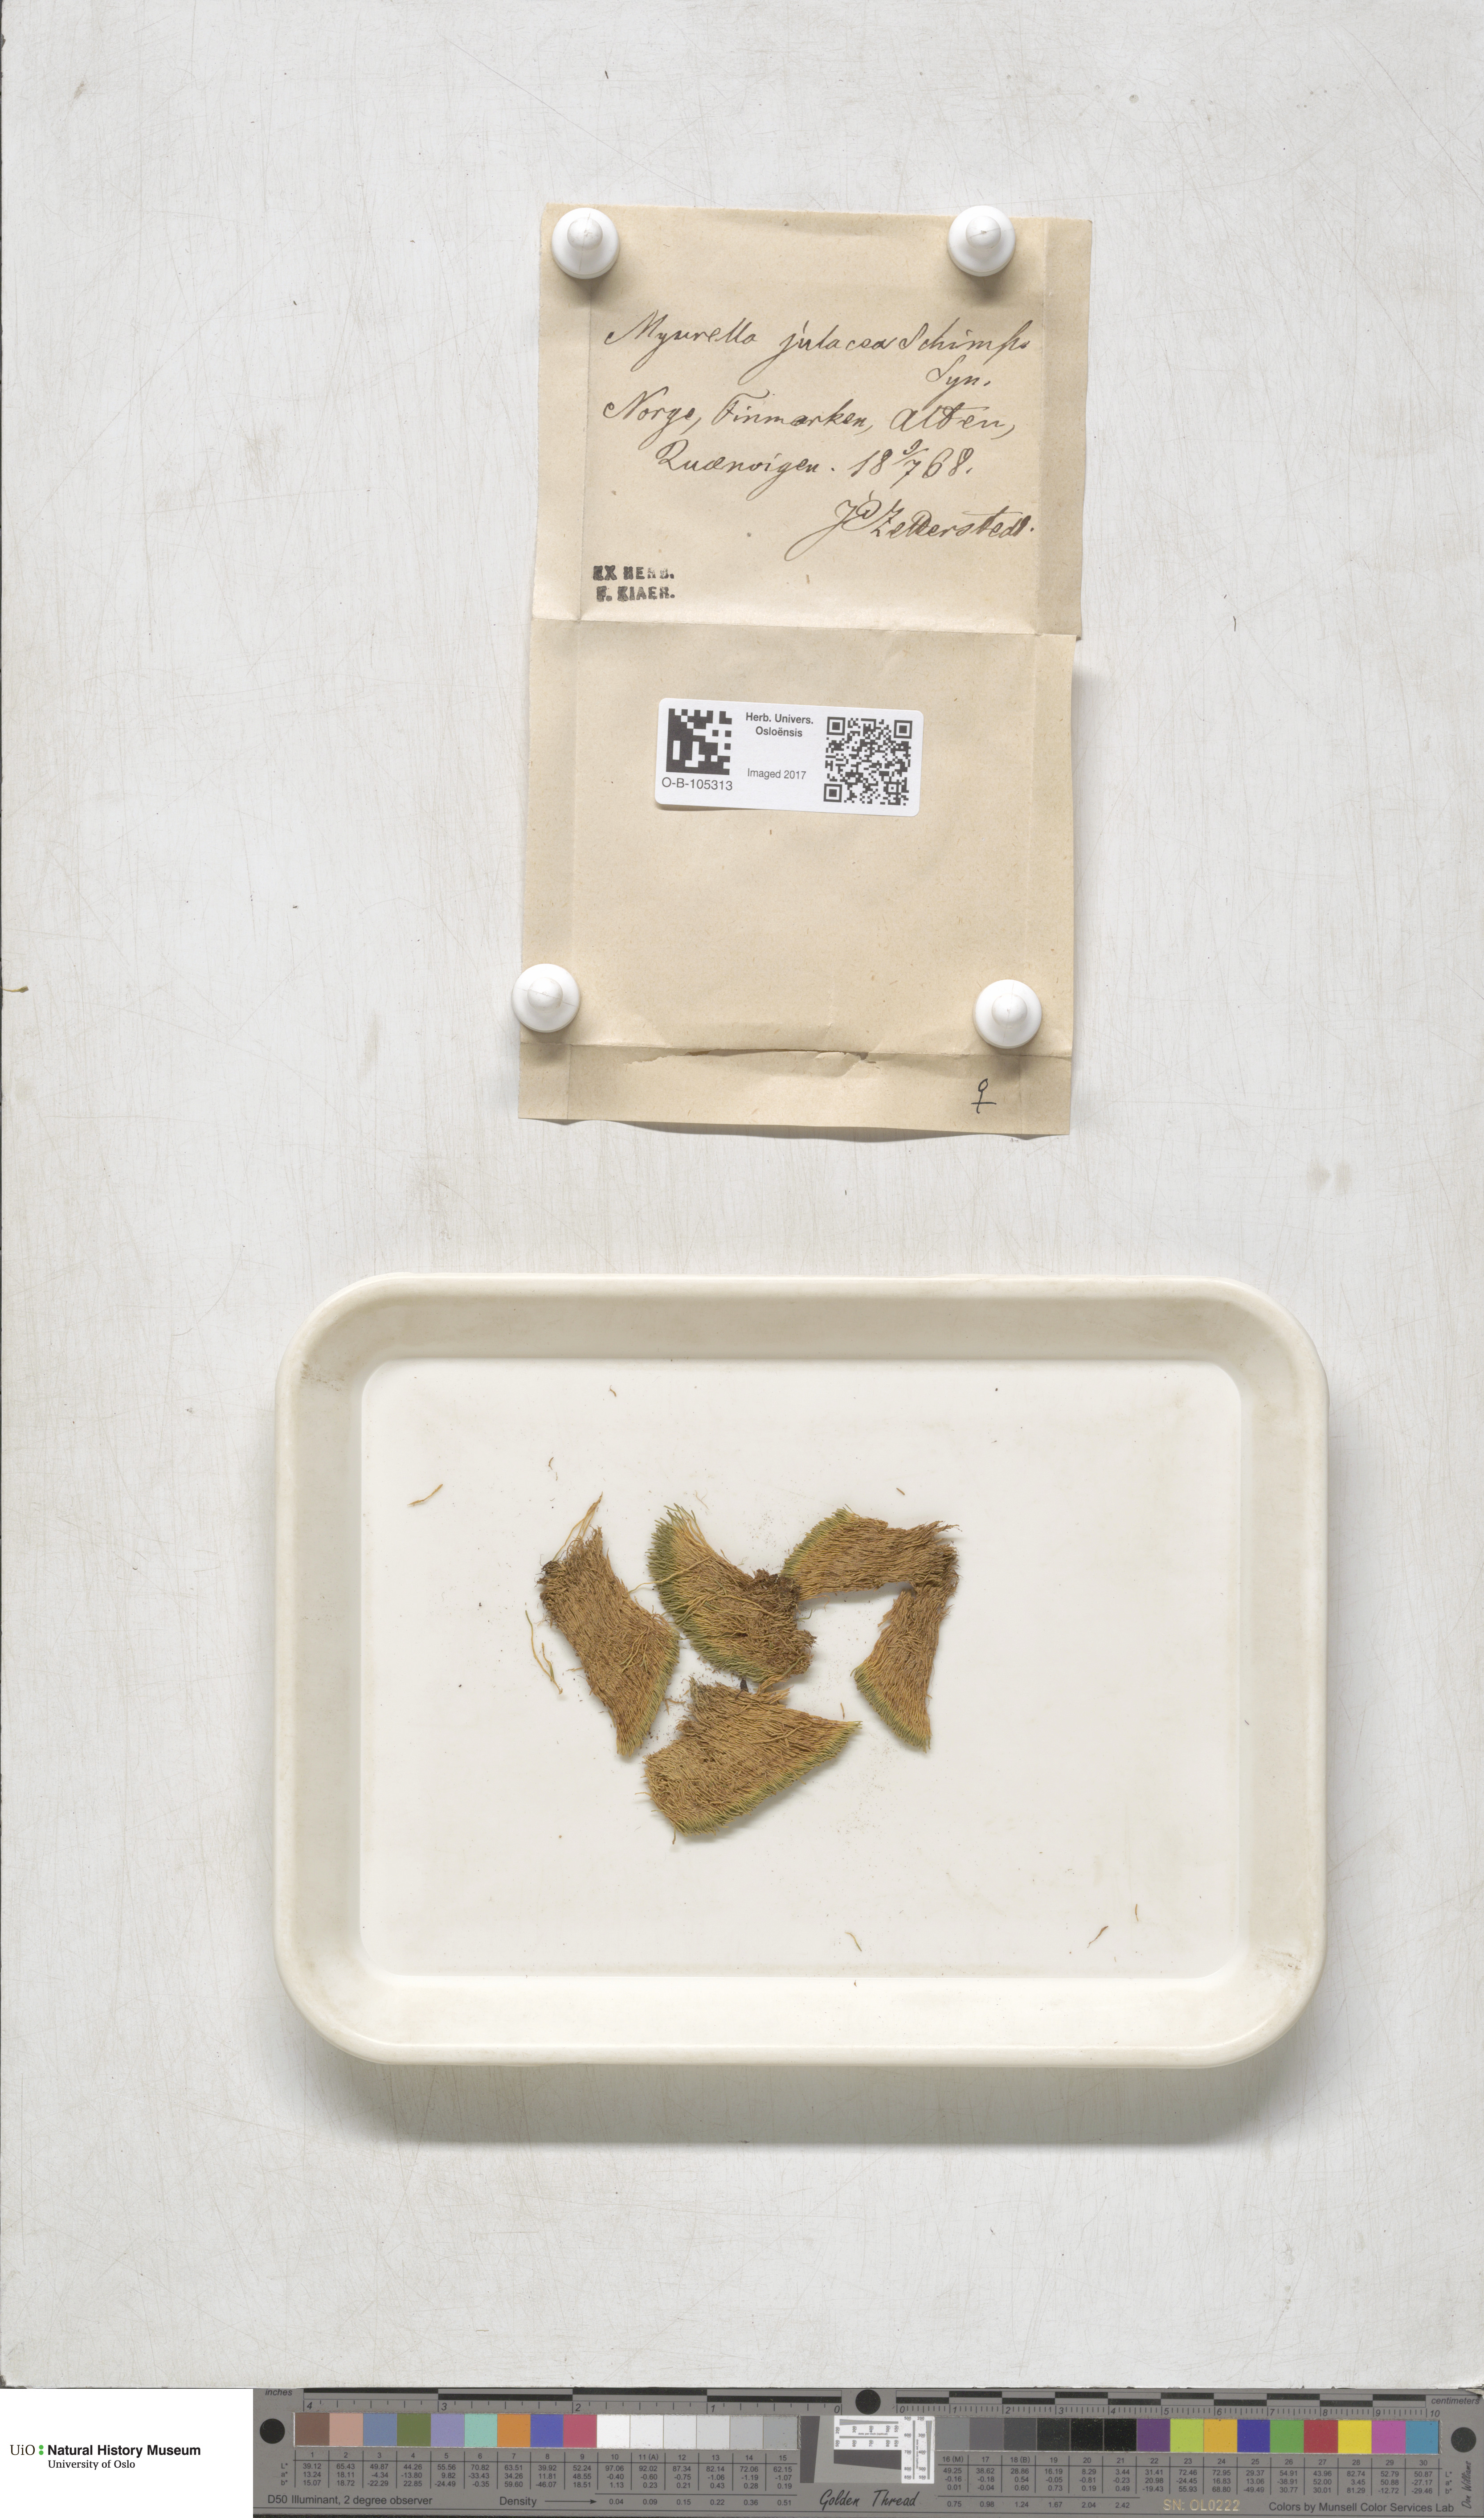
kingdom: Plantae
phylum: Bryophyta
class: Bryopsida
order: Hypnales
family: Plagiotheciaceae
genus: Myurella
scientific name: Myurella julacea
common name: Small mousetail moss
